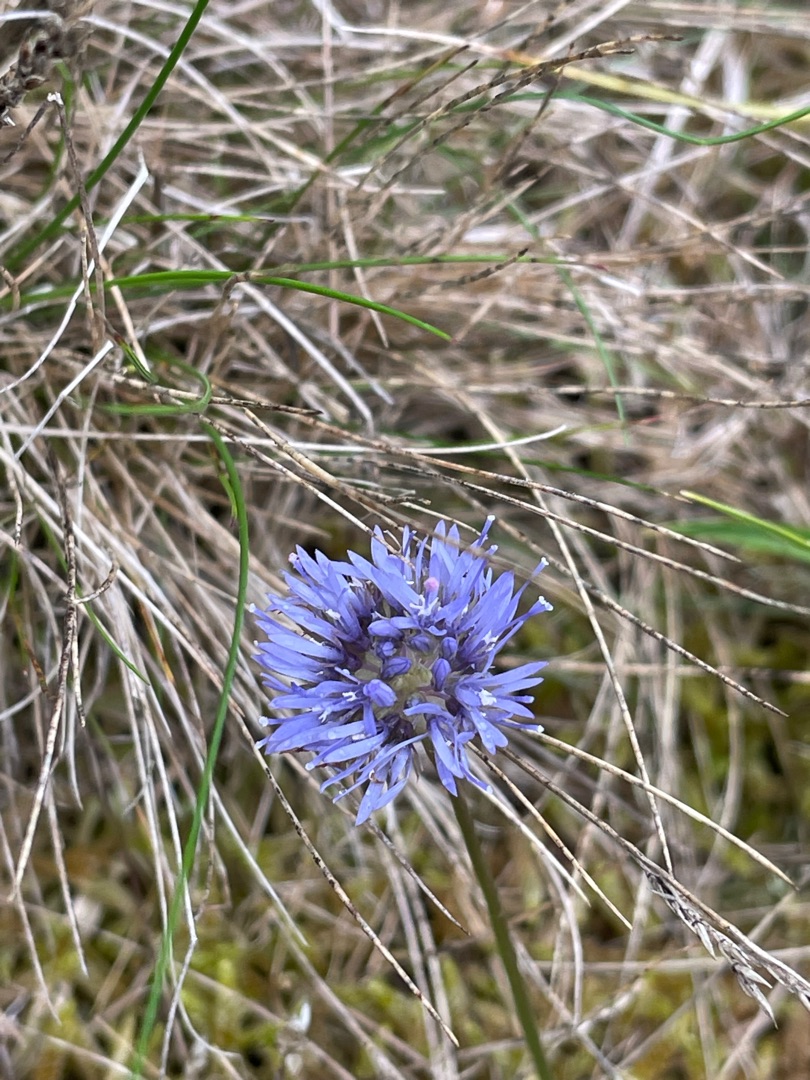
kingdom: Plantae
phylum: Tracheophyta
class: Magnoliopsida
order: Asterales
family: Campanulaceae
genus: Jasione
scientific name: Jasione montana
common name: Blåmunke
